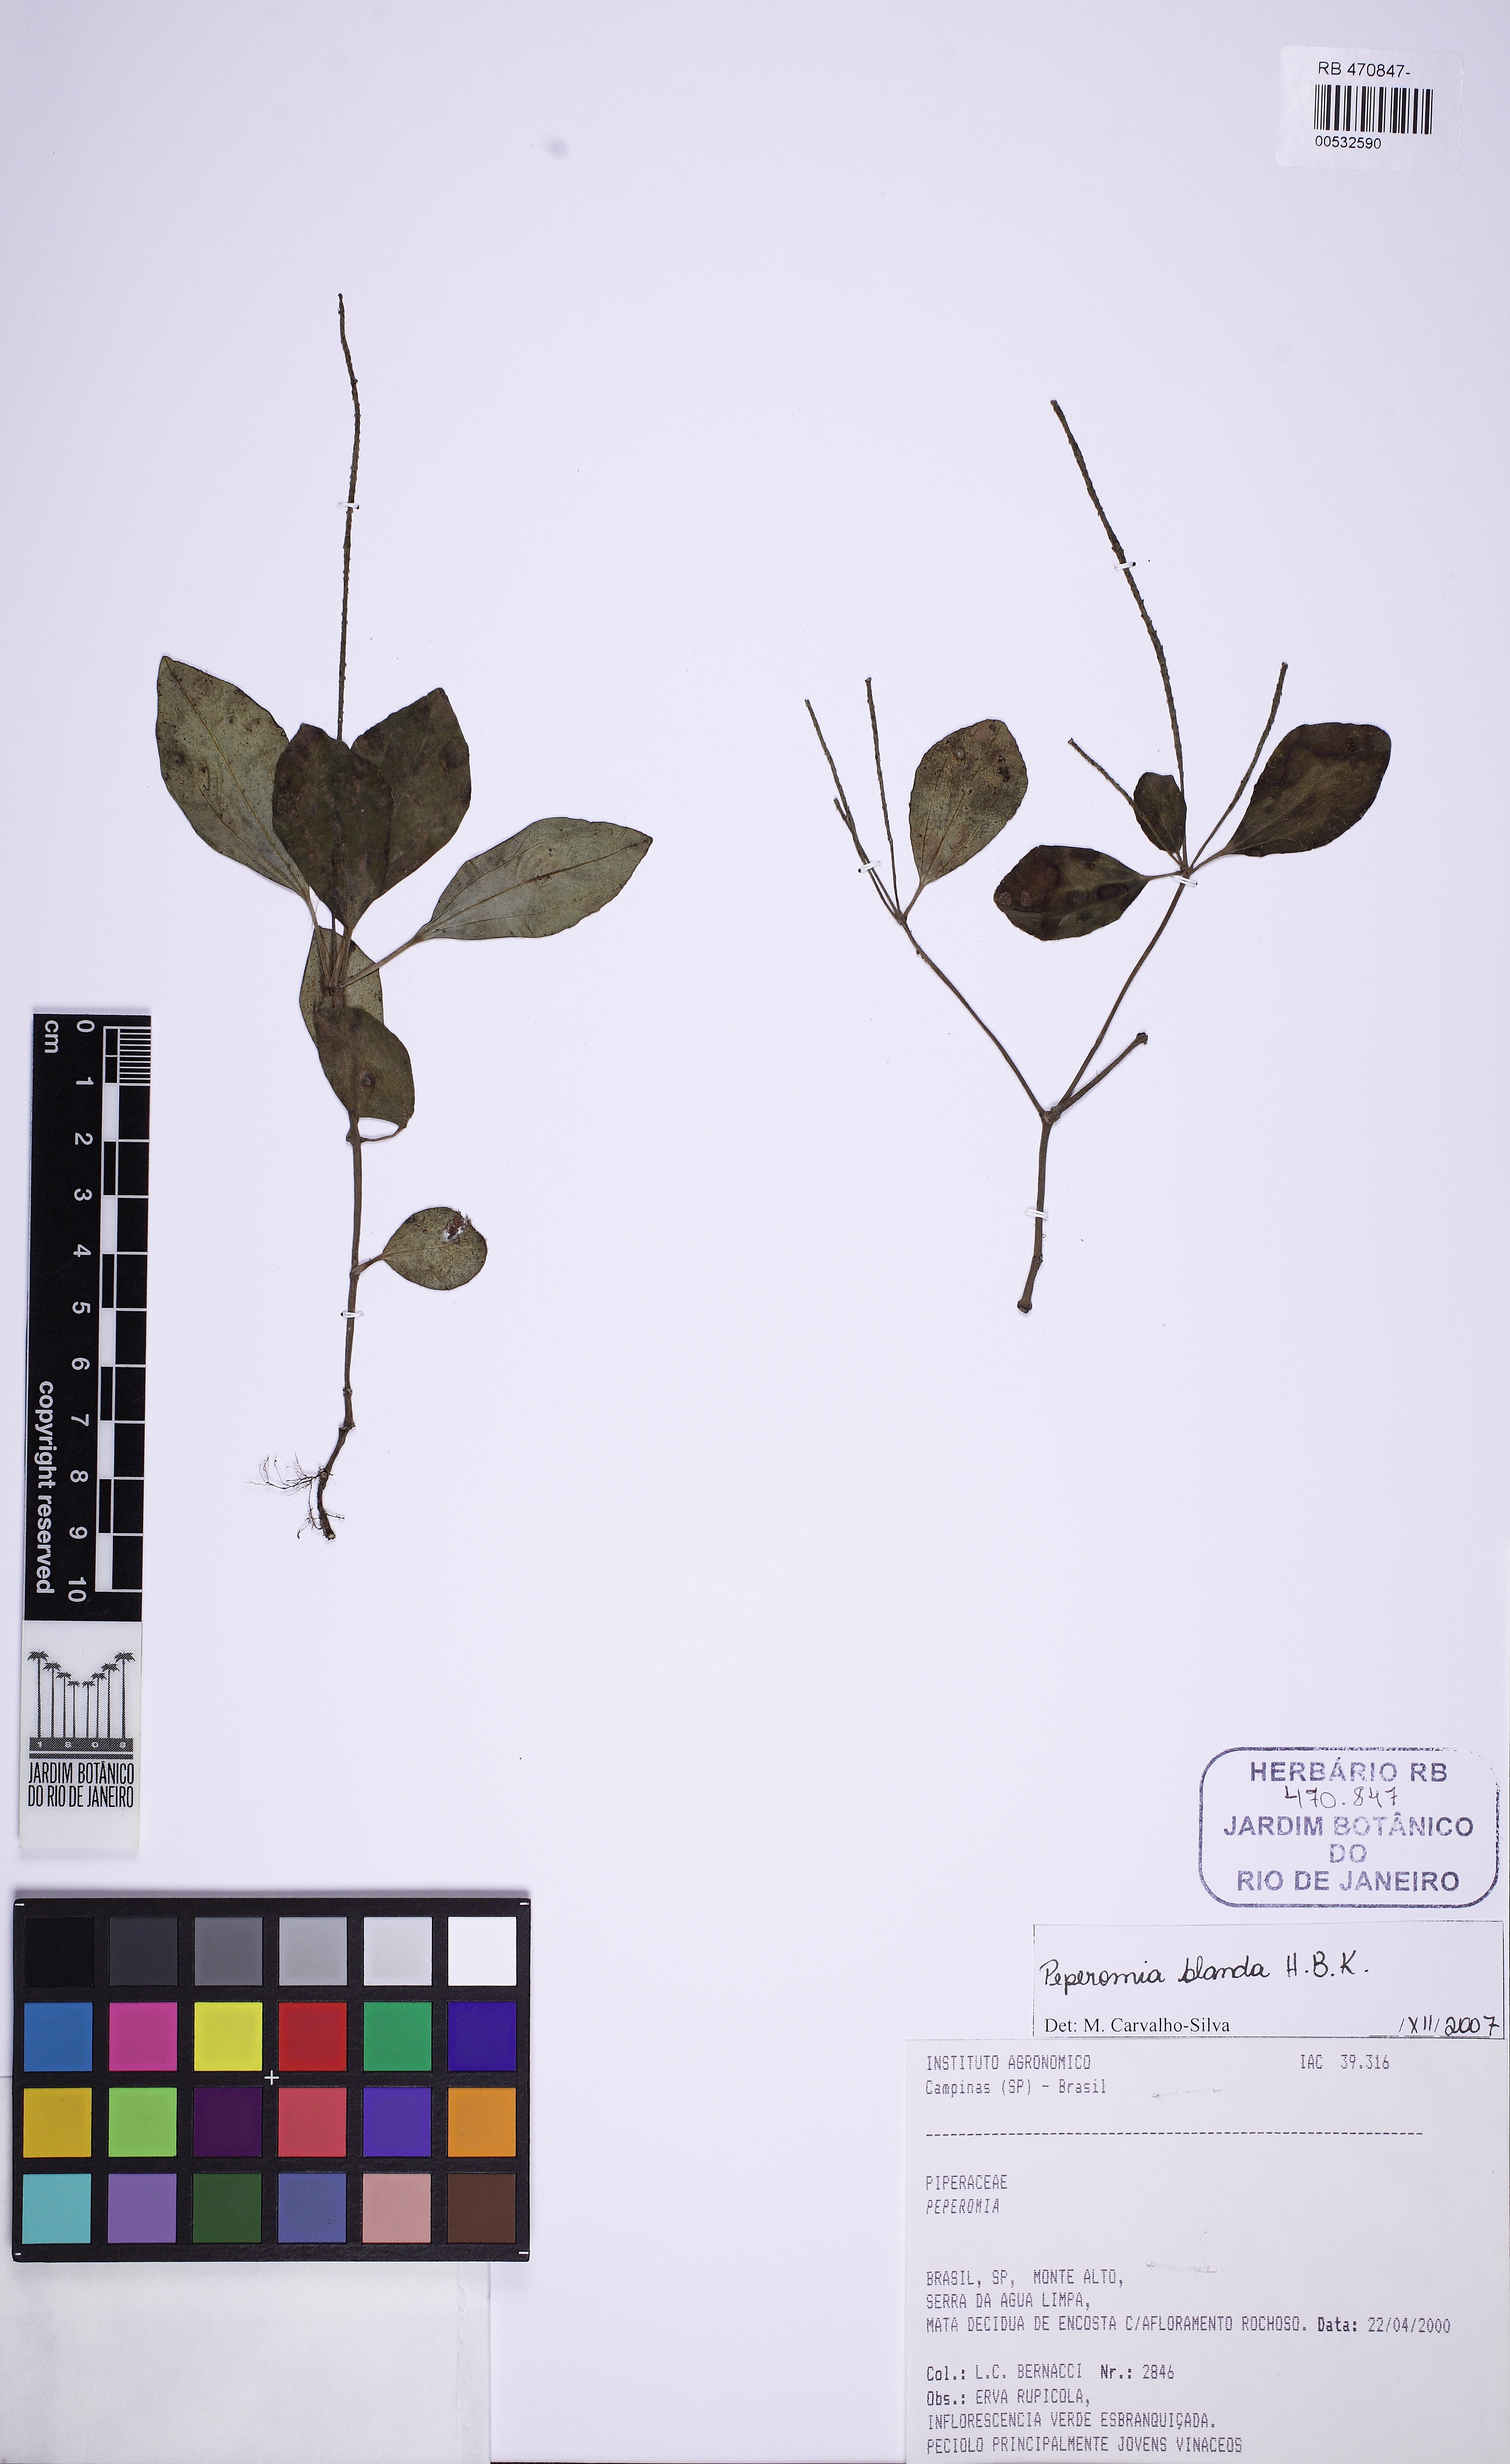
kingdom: Plantae
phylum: Tracheophyta
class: Magnoliopsida
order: Piperales
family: Piperaceae
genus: Peperomia
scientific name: Peperomia blanda
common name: Arid-land peperomia
